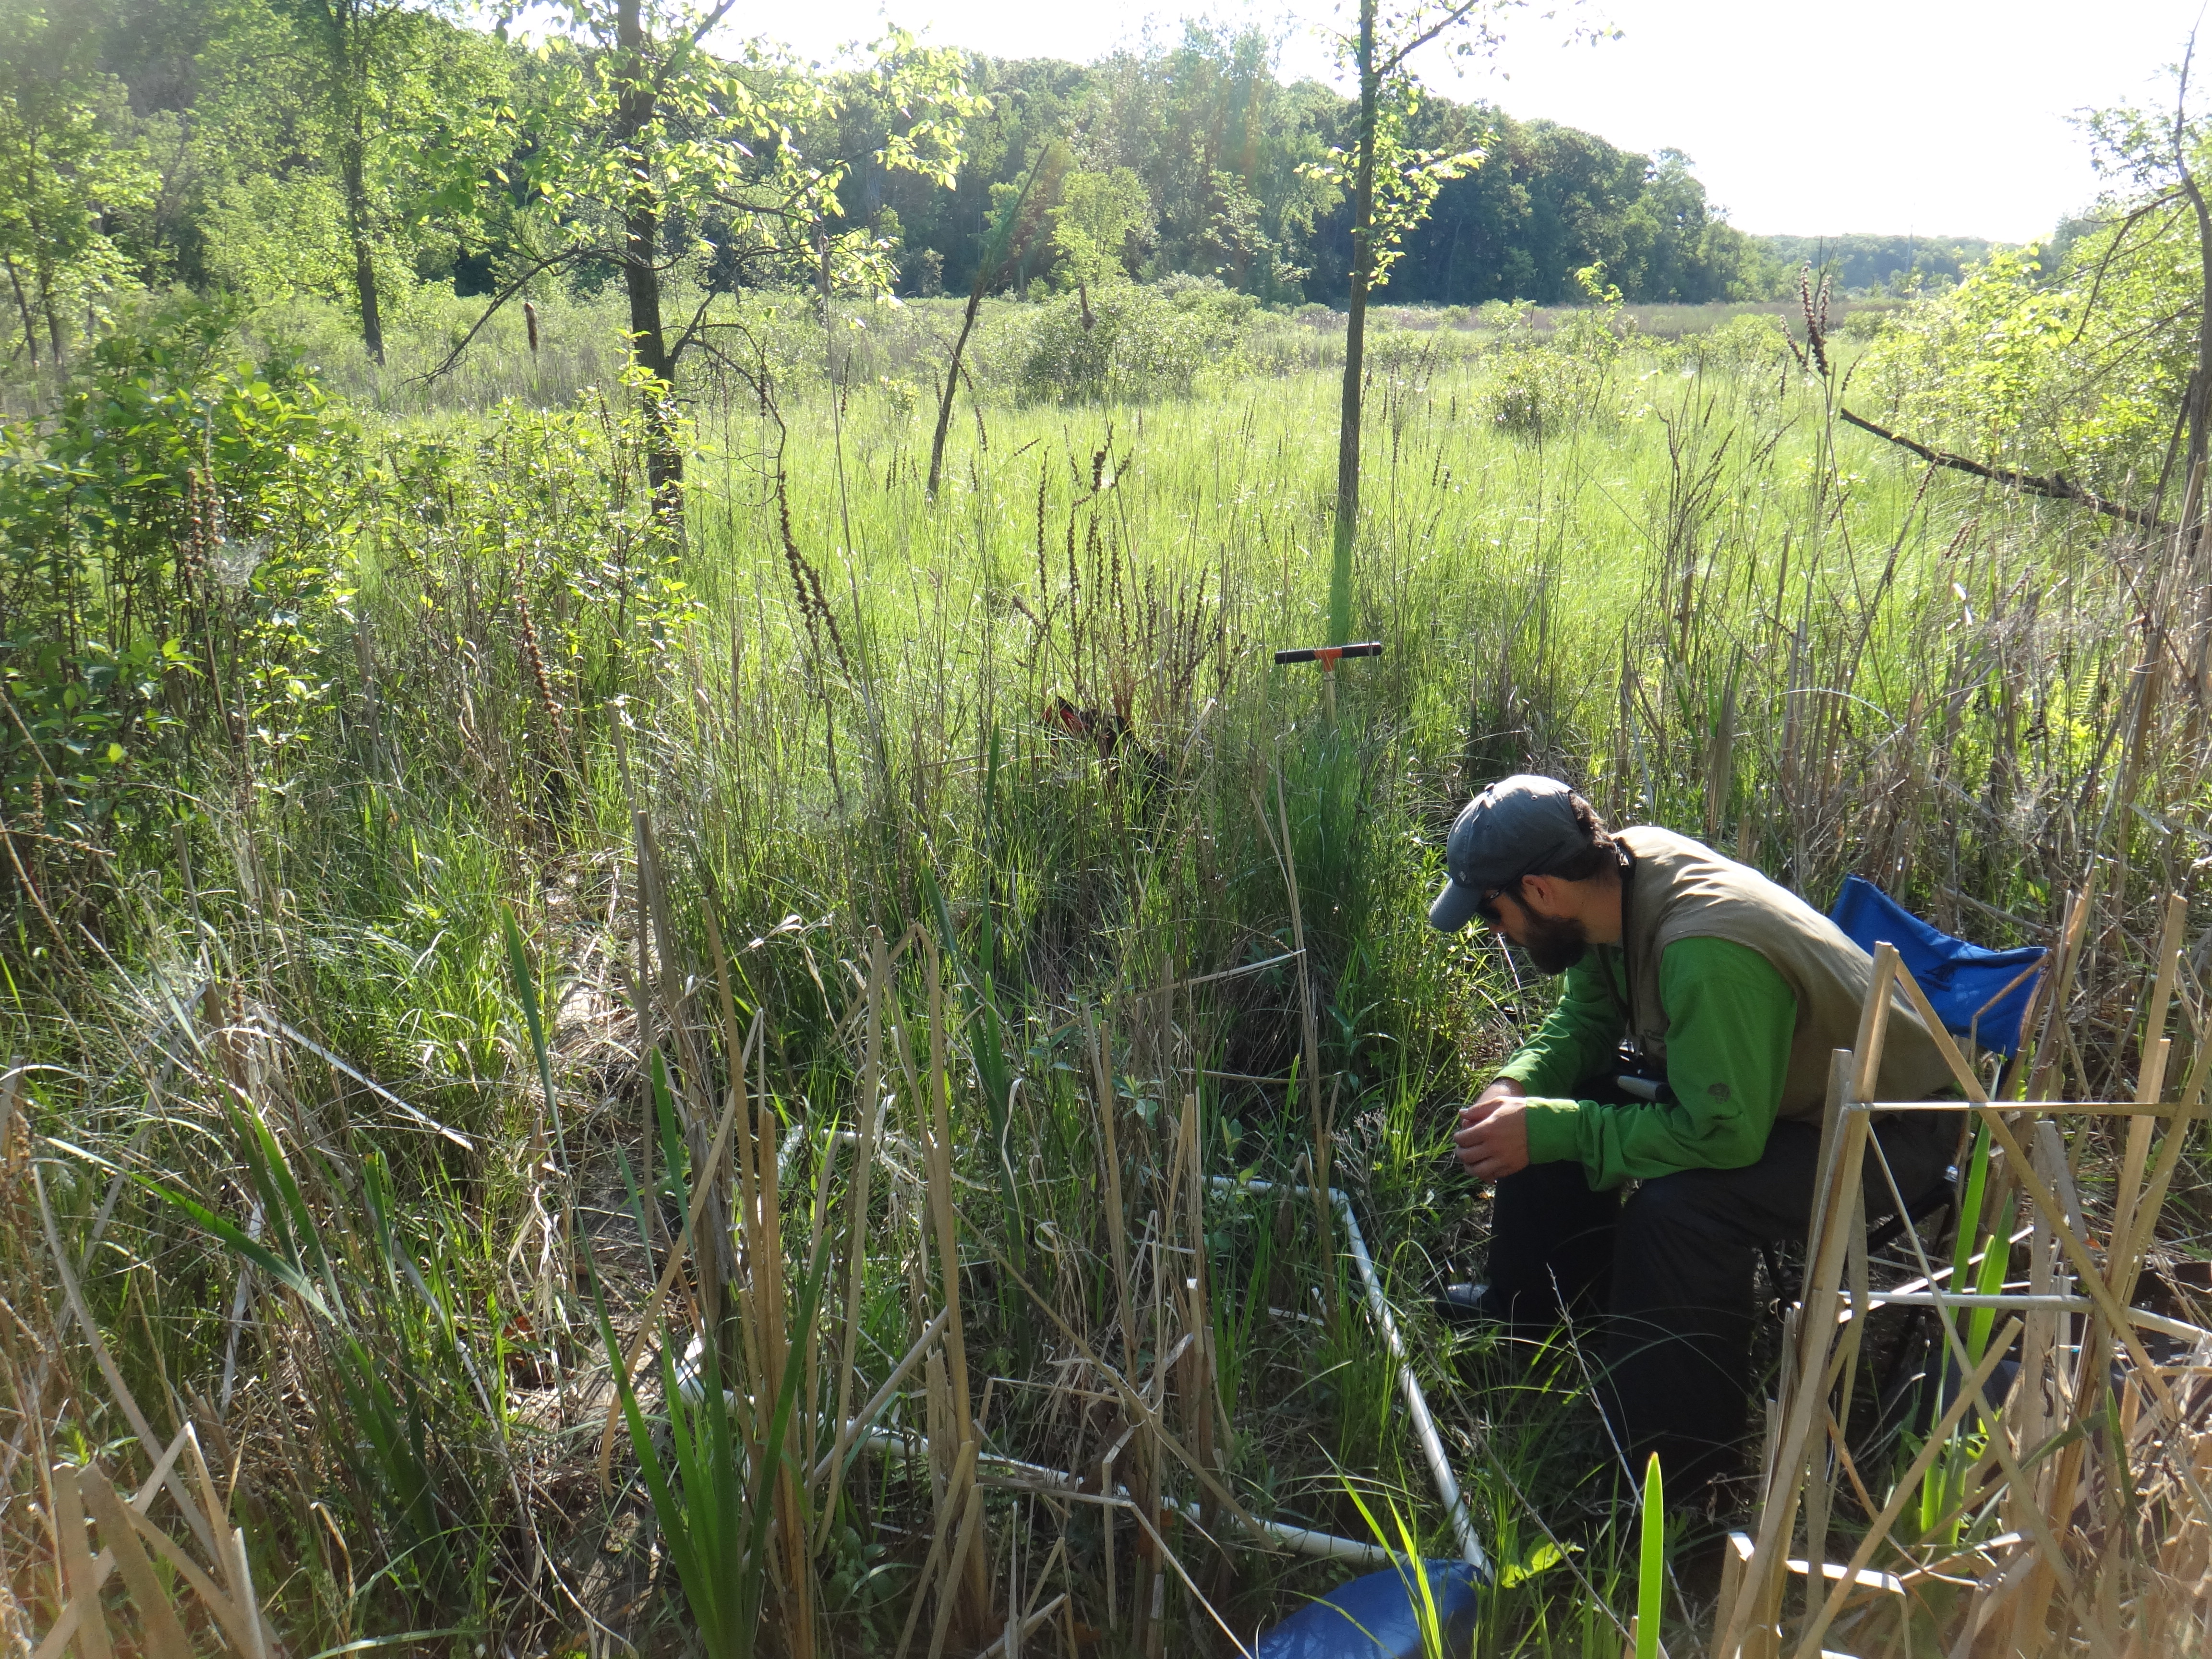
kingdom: Plantae
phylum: Tracheophyta
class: Magnoliopsida
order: Lamiales
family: Lamiaceae
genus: Mentha
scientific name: Mentha canadensis
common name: American corn mint
